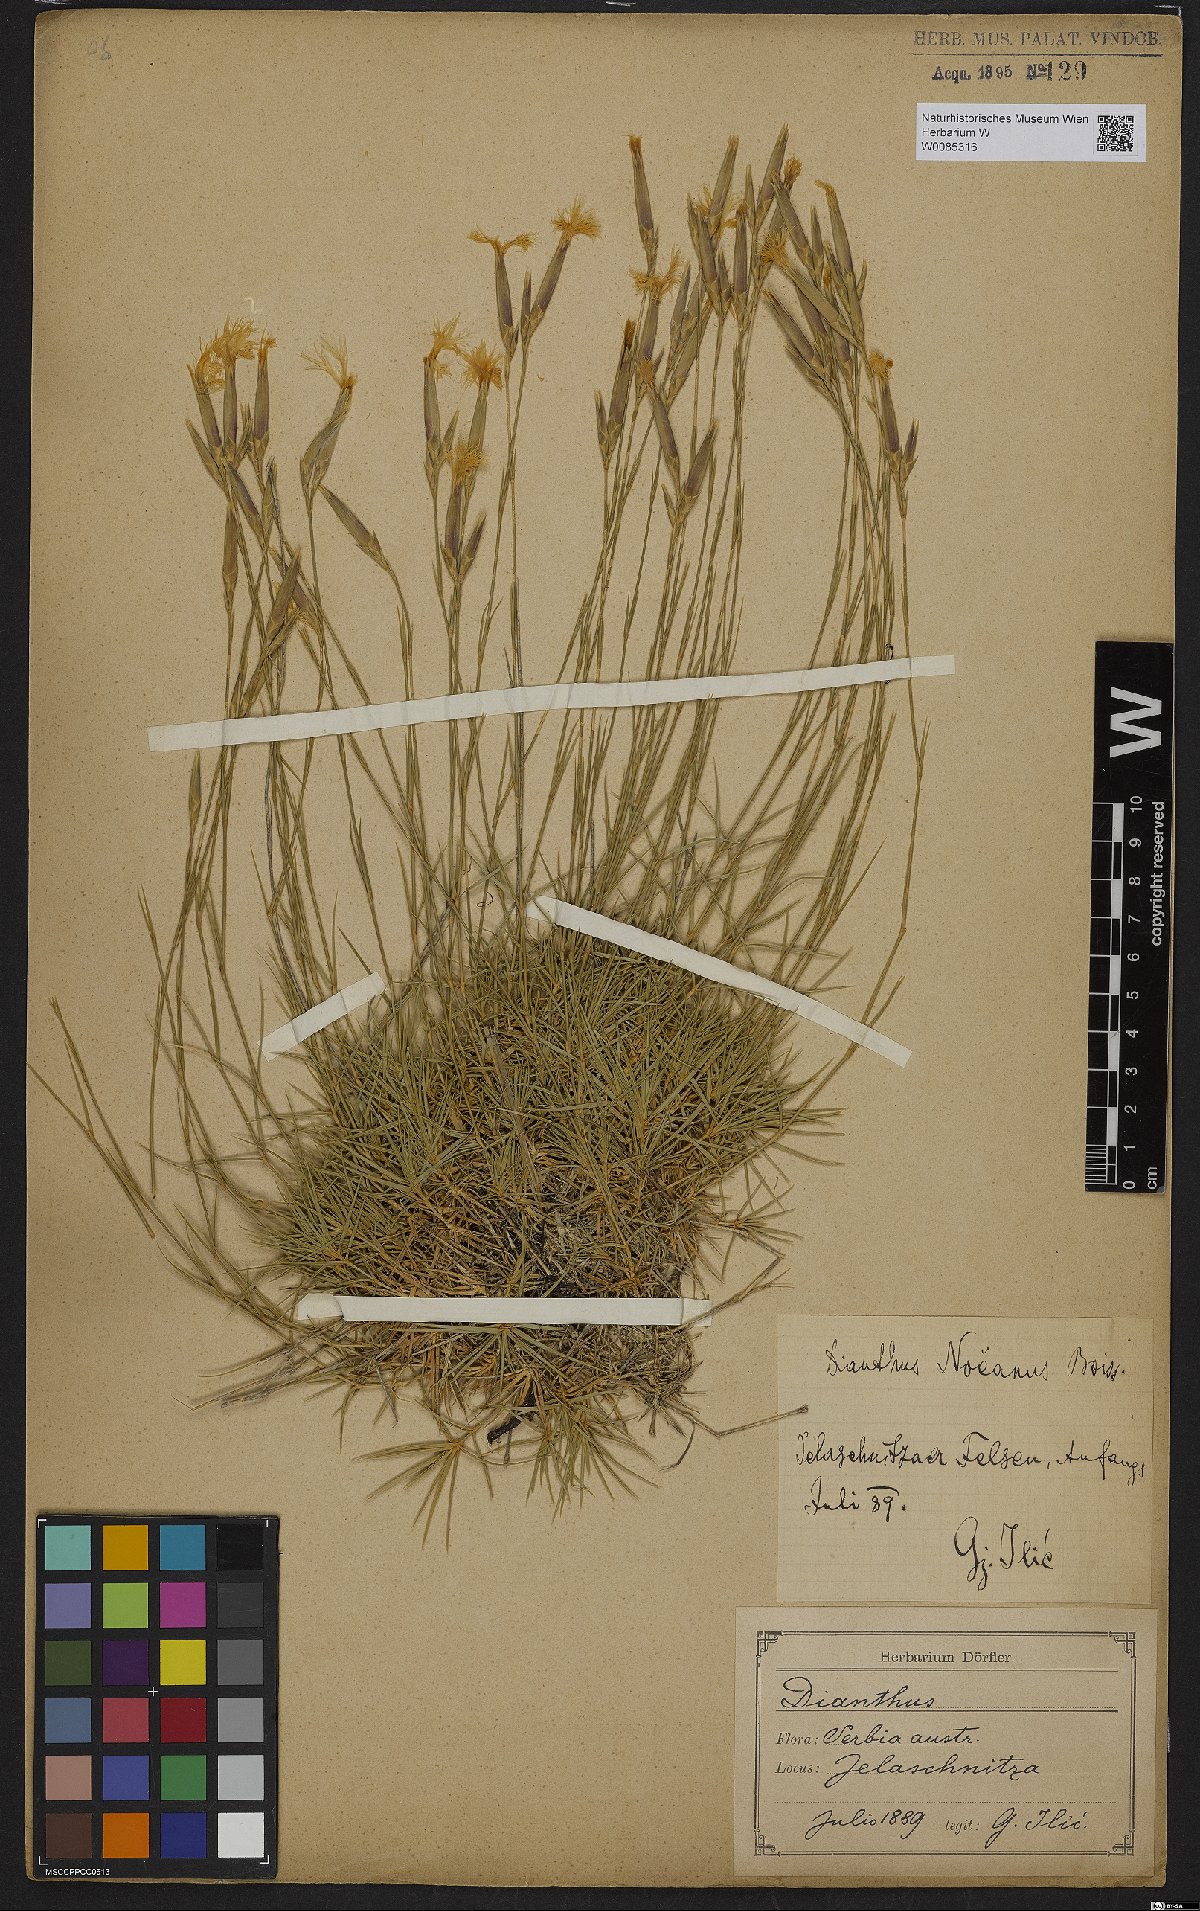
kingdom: Plantae
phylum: Tracheophyta
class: Magnoliopsida
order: Caryophyllales
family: Caryophyllaceae
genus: Dianthus
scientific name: Dianthus noeanus
